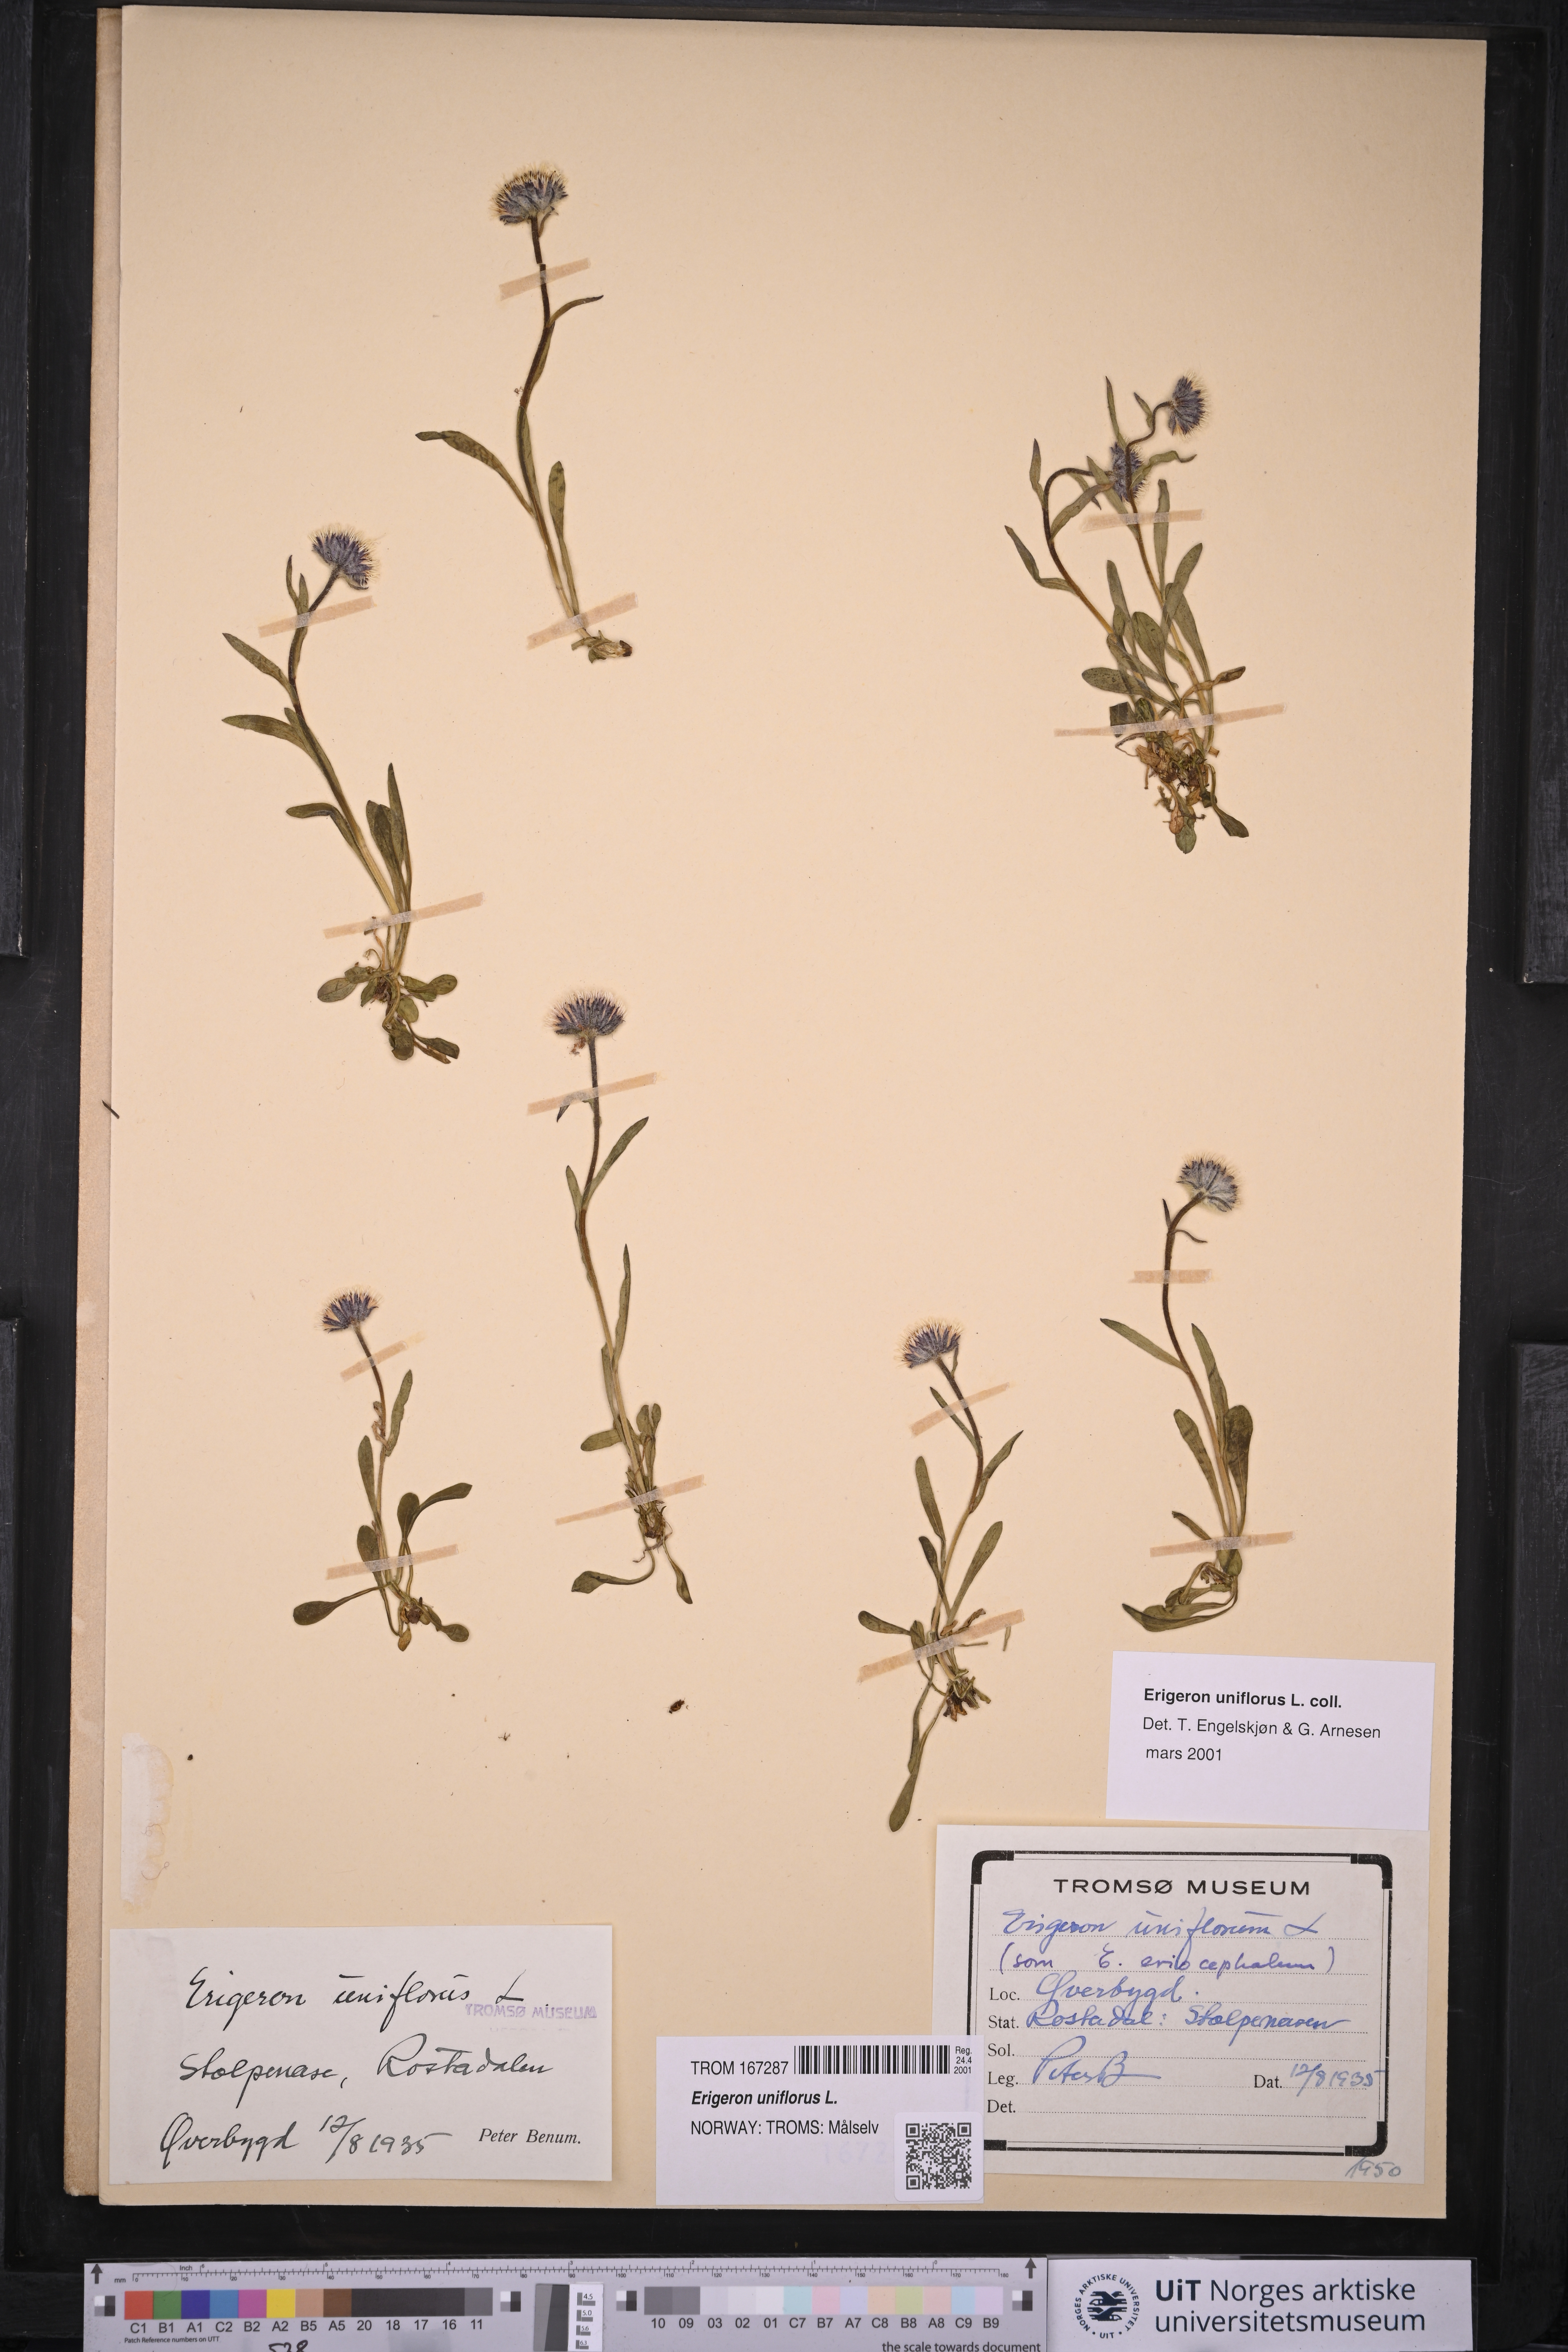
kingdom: Plantae
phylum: Tracheophyta
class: Magnoliopsida
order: Asterales
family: Asteraceae
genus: Erigeron
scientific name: Erigeron uniflorus
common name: Northern daisy
